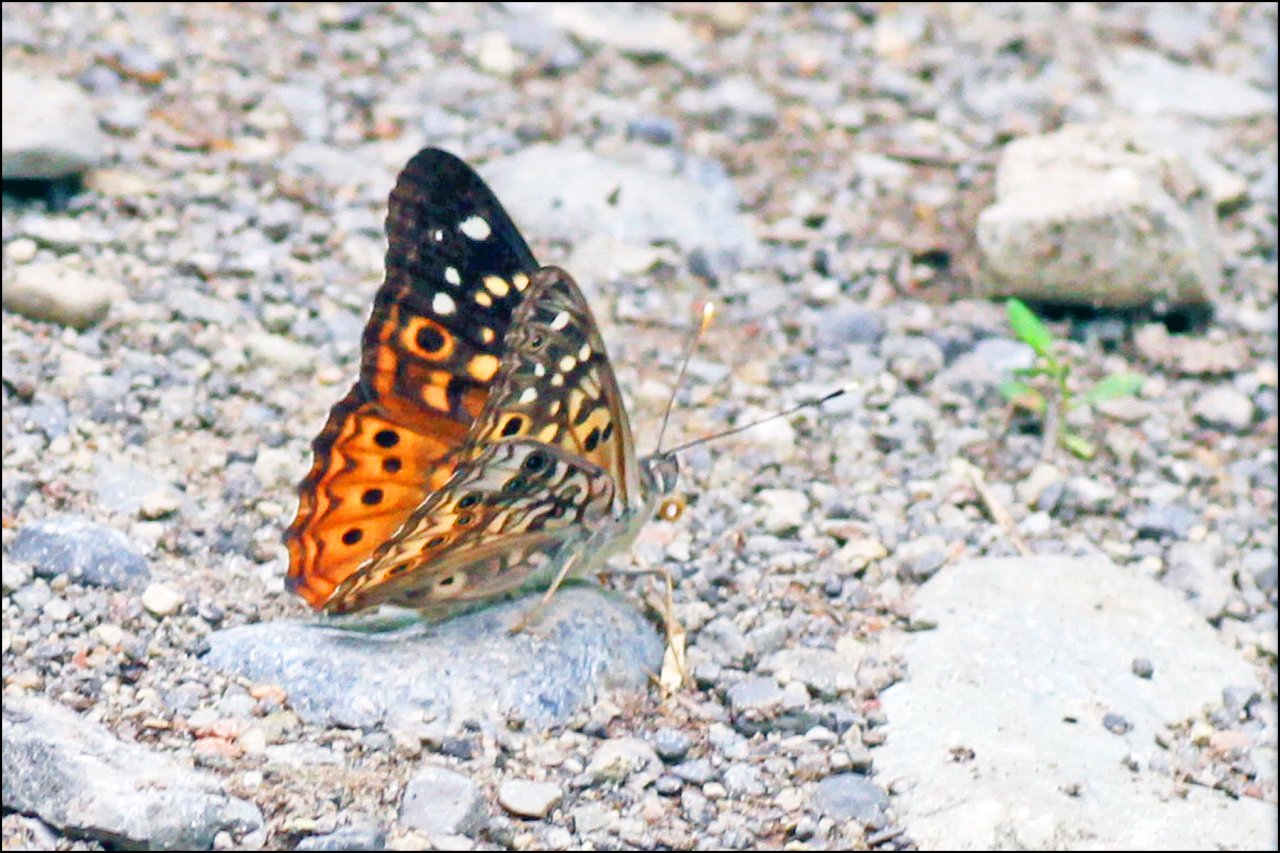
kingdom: Animalia
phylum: Arthropoda
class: Insecta
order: Lepidoptera
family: Nymphalidae
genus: Asterocampa
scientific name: Asterocampa celtis
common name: Hackberry Emperor
